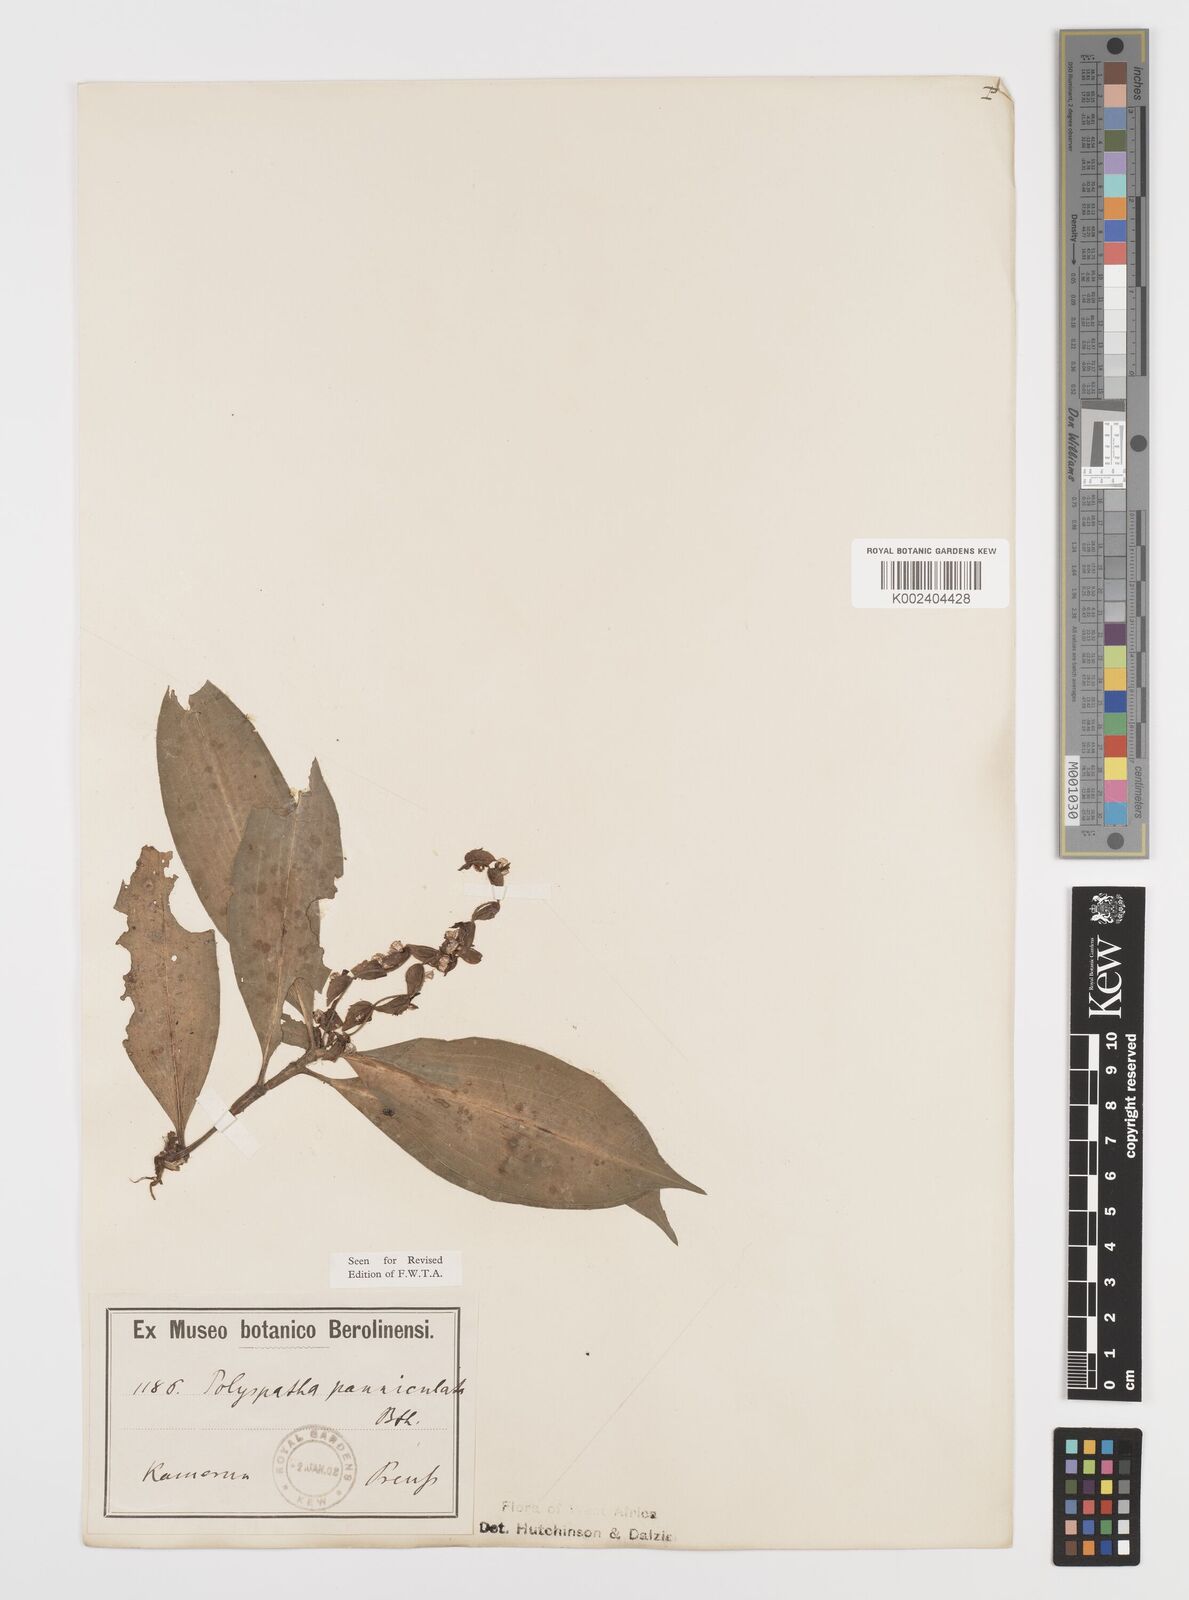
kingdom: Plantae
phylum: Tracheophyta
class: Liliopsida
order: Commelinales
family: Commelinaceae
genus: Polyspatha
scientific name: Polyspatha paniculata
